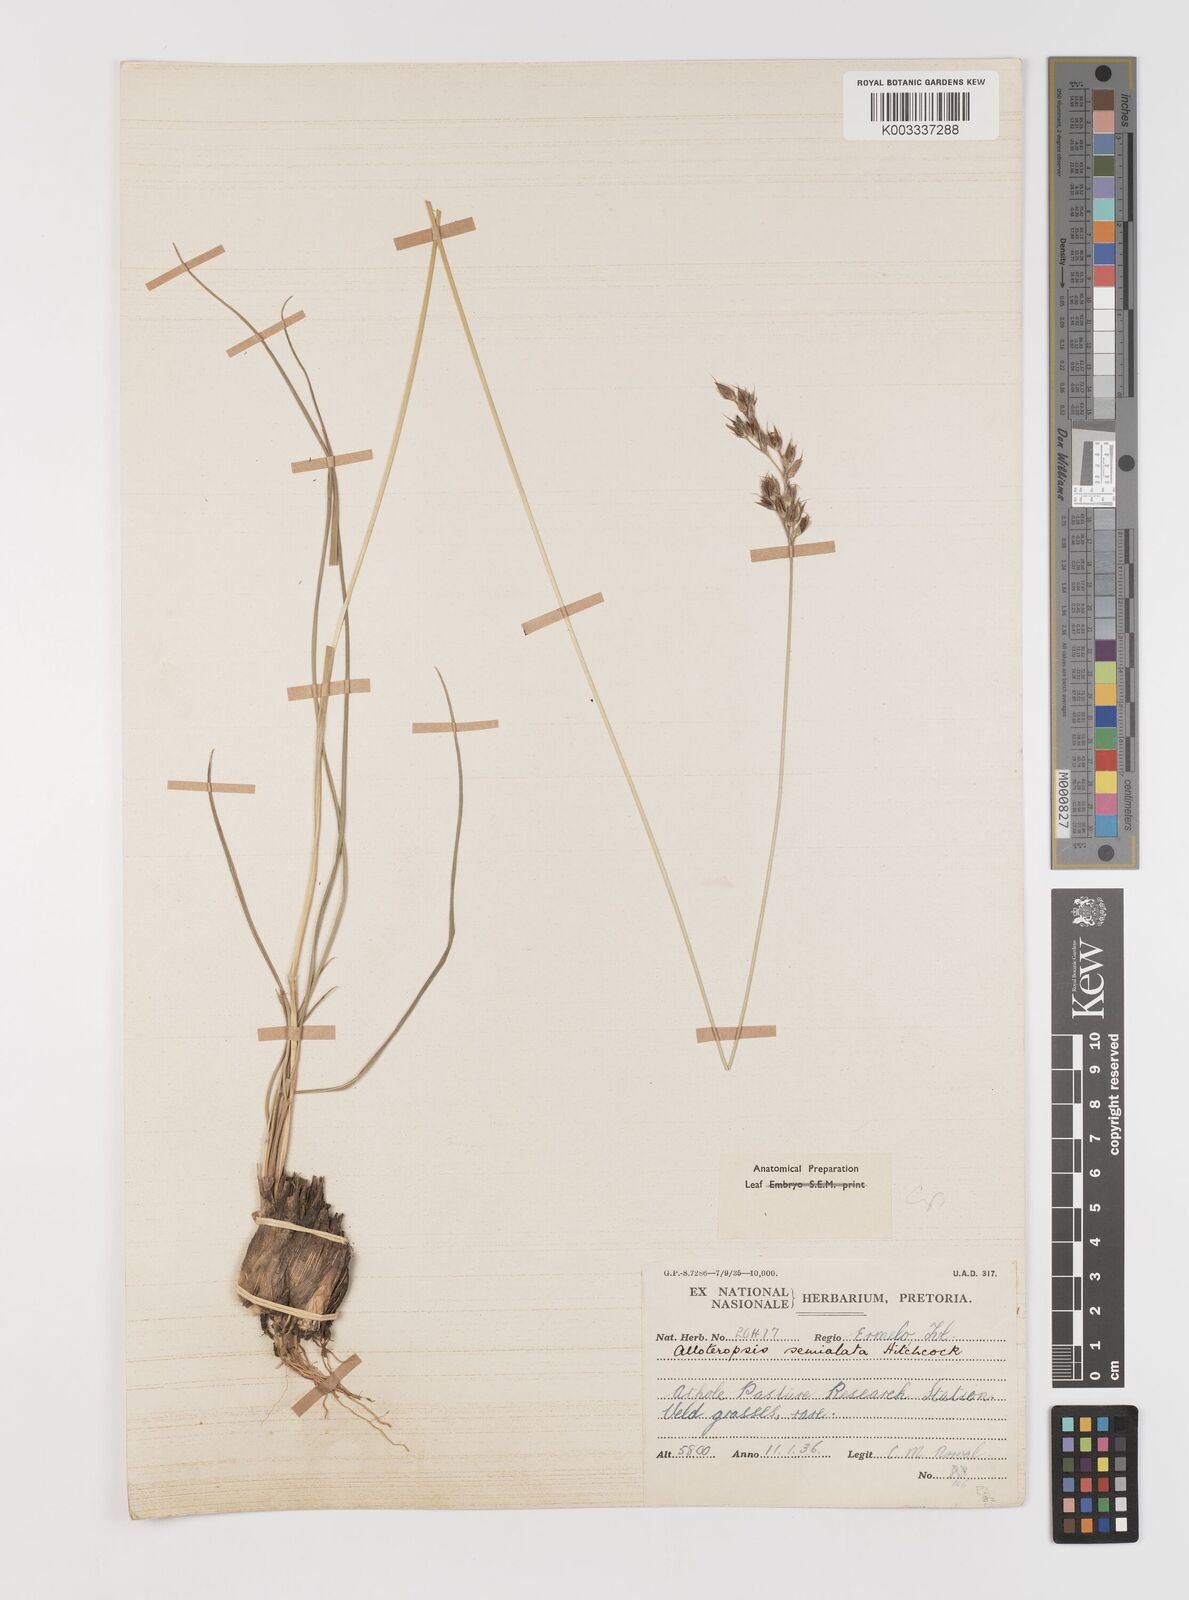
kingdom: Plantae
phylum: Tracheophyta
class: Liliopsida
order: Poales
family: Poaceae
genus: Alloteropsis
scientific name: Alloteropsis semialata
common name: Cockatoo grass
